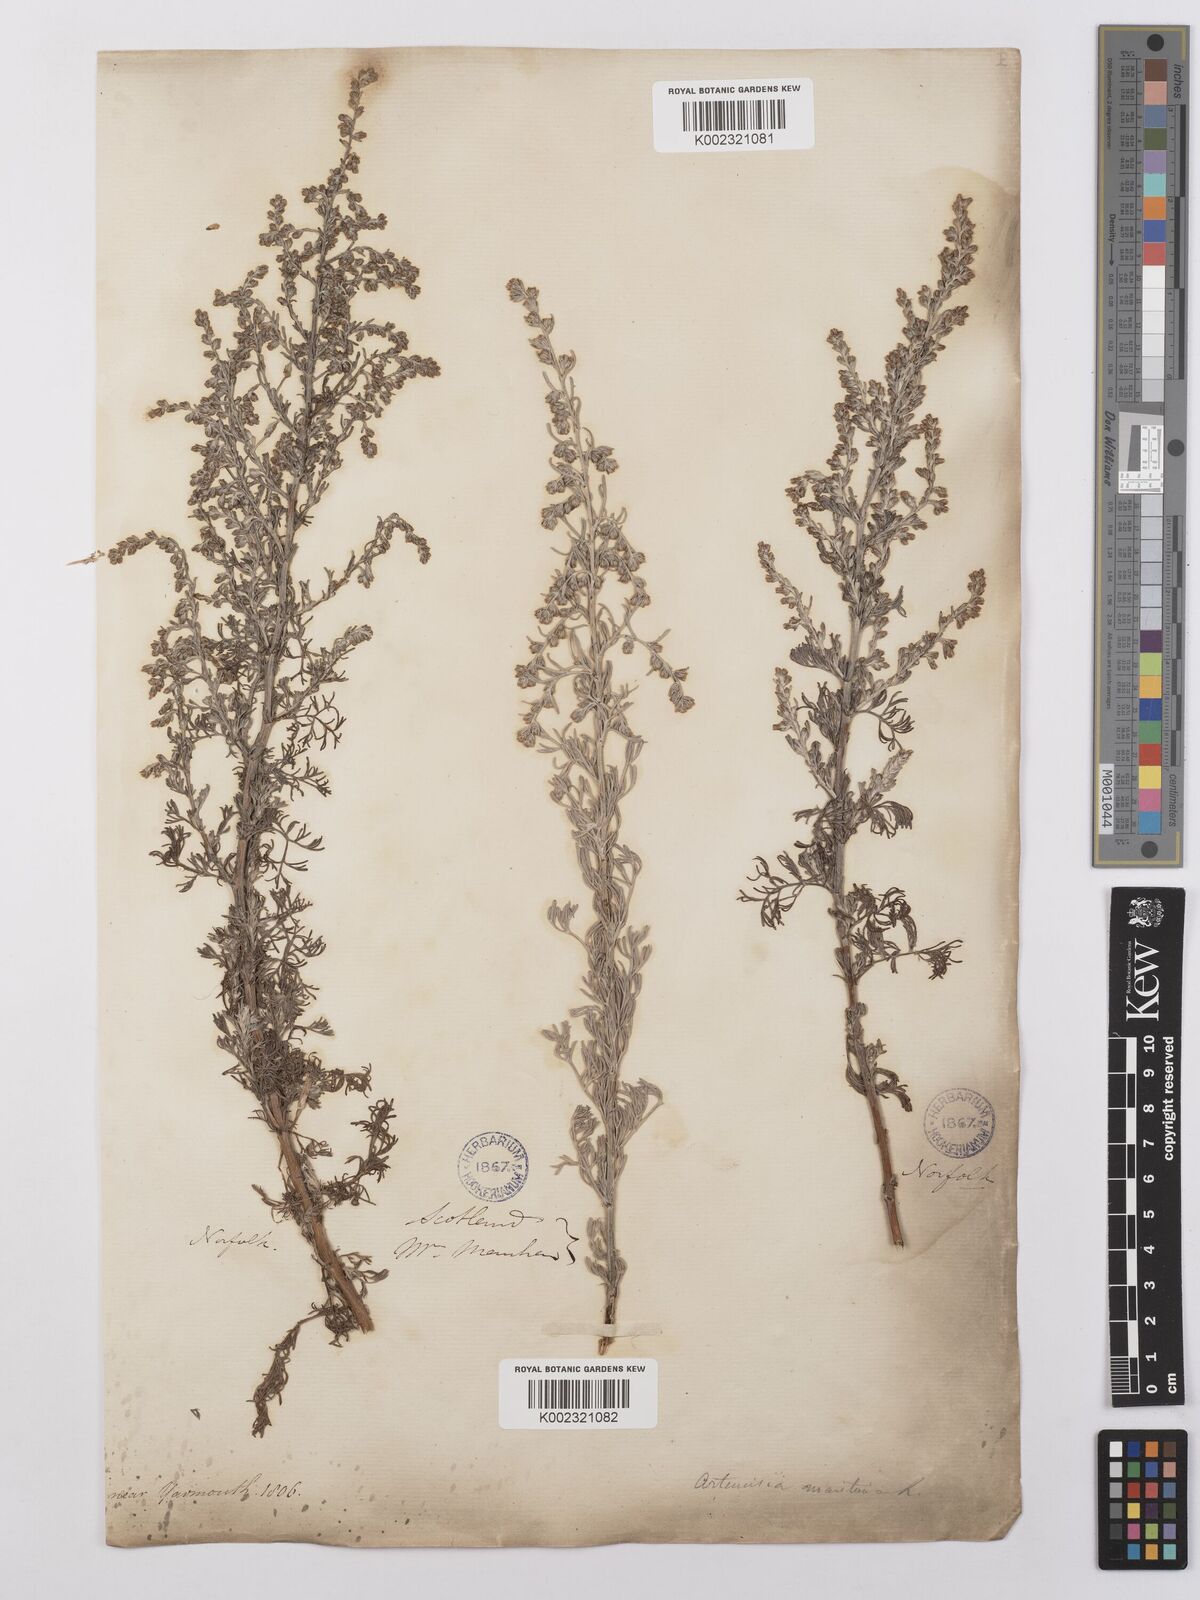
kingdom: Plantae
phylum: Tracheophyta
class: Magnoliopsida
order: Asterales
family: Asteraceae
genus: Artemisia
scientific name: Artemisia maritima
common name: Wormseed
